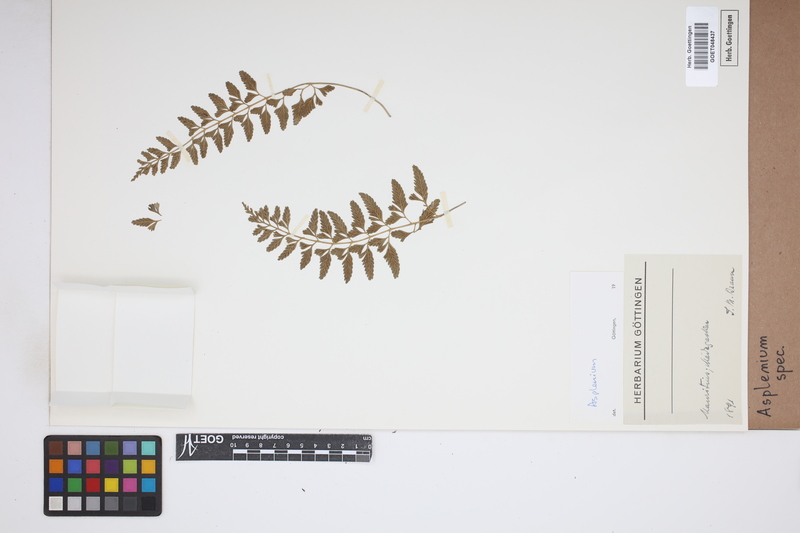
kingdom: Plantae
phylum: Tracheophyta
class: Polypodiopsida
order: Polypodiales
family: Aspleniaceae
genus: Asplenium
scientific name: Asplenium
